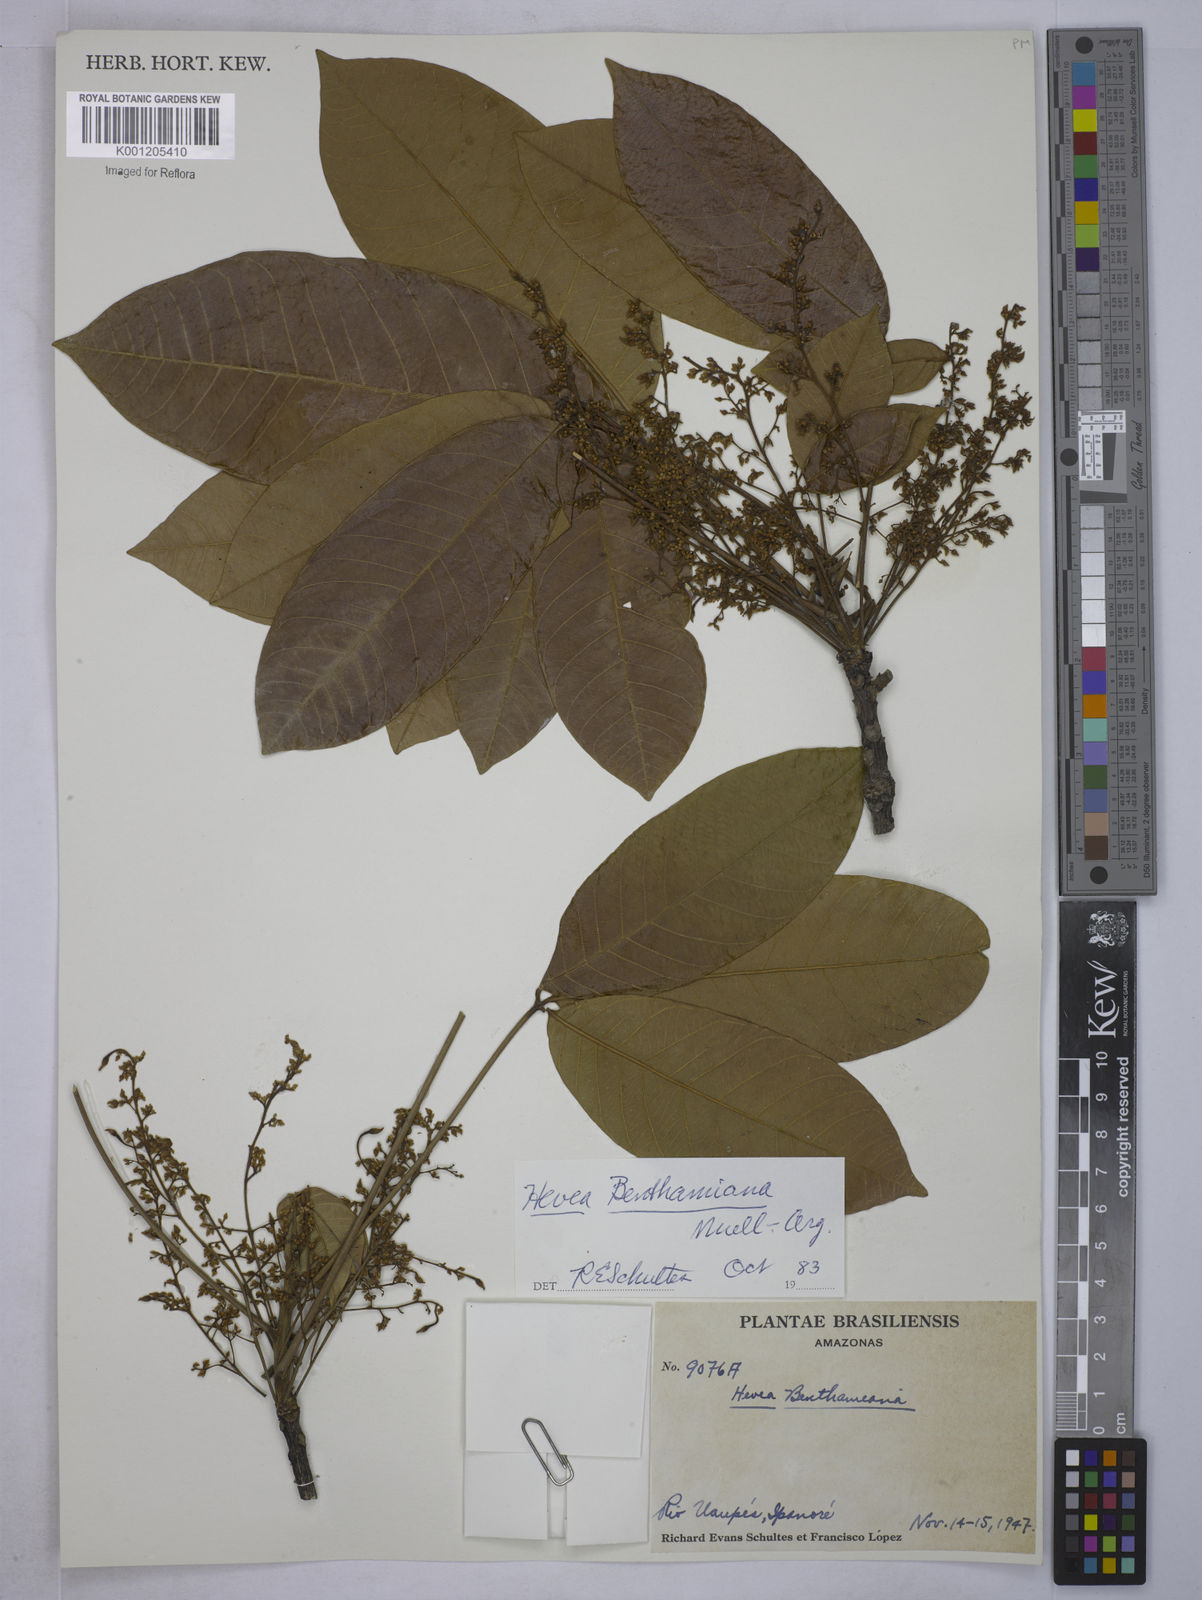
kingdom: Plantae
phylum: Tracheophyta
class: Magnoliopsida
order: Malpighiales
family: Euphorbiaceae
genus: Hevea
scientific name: Hevea
